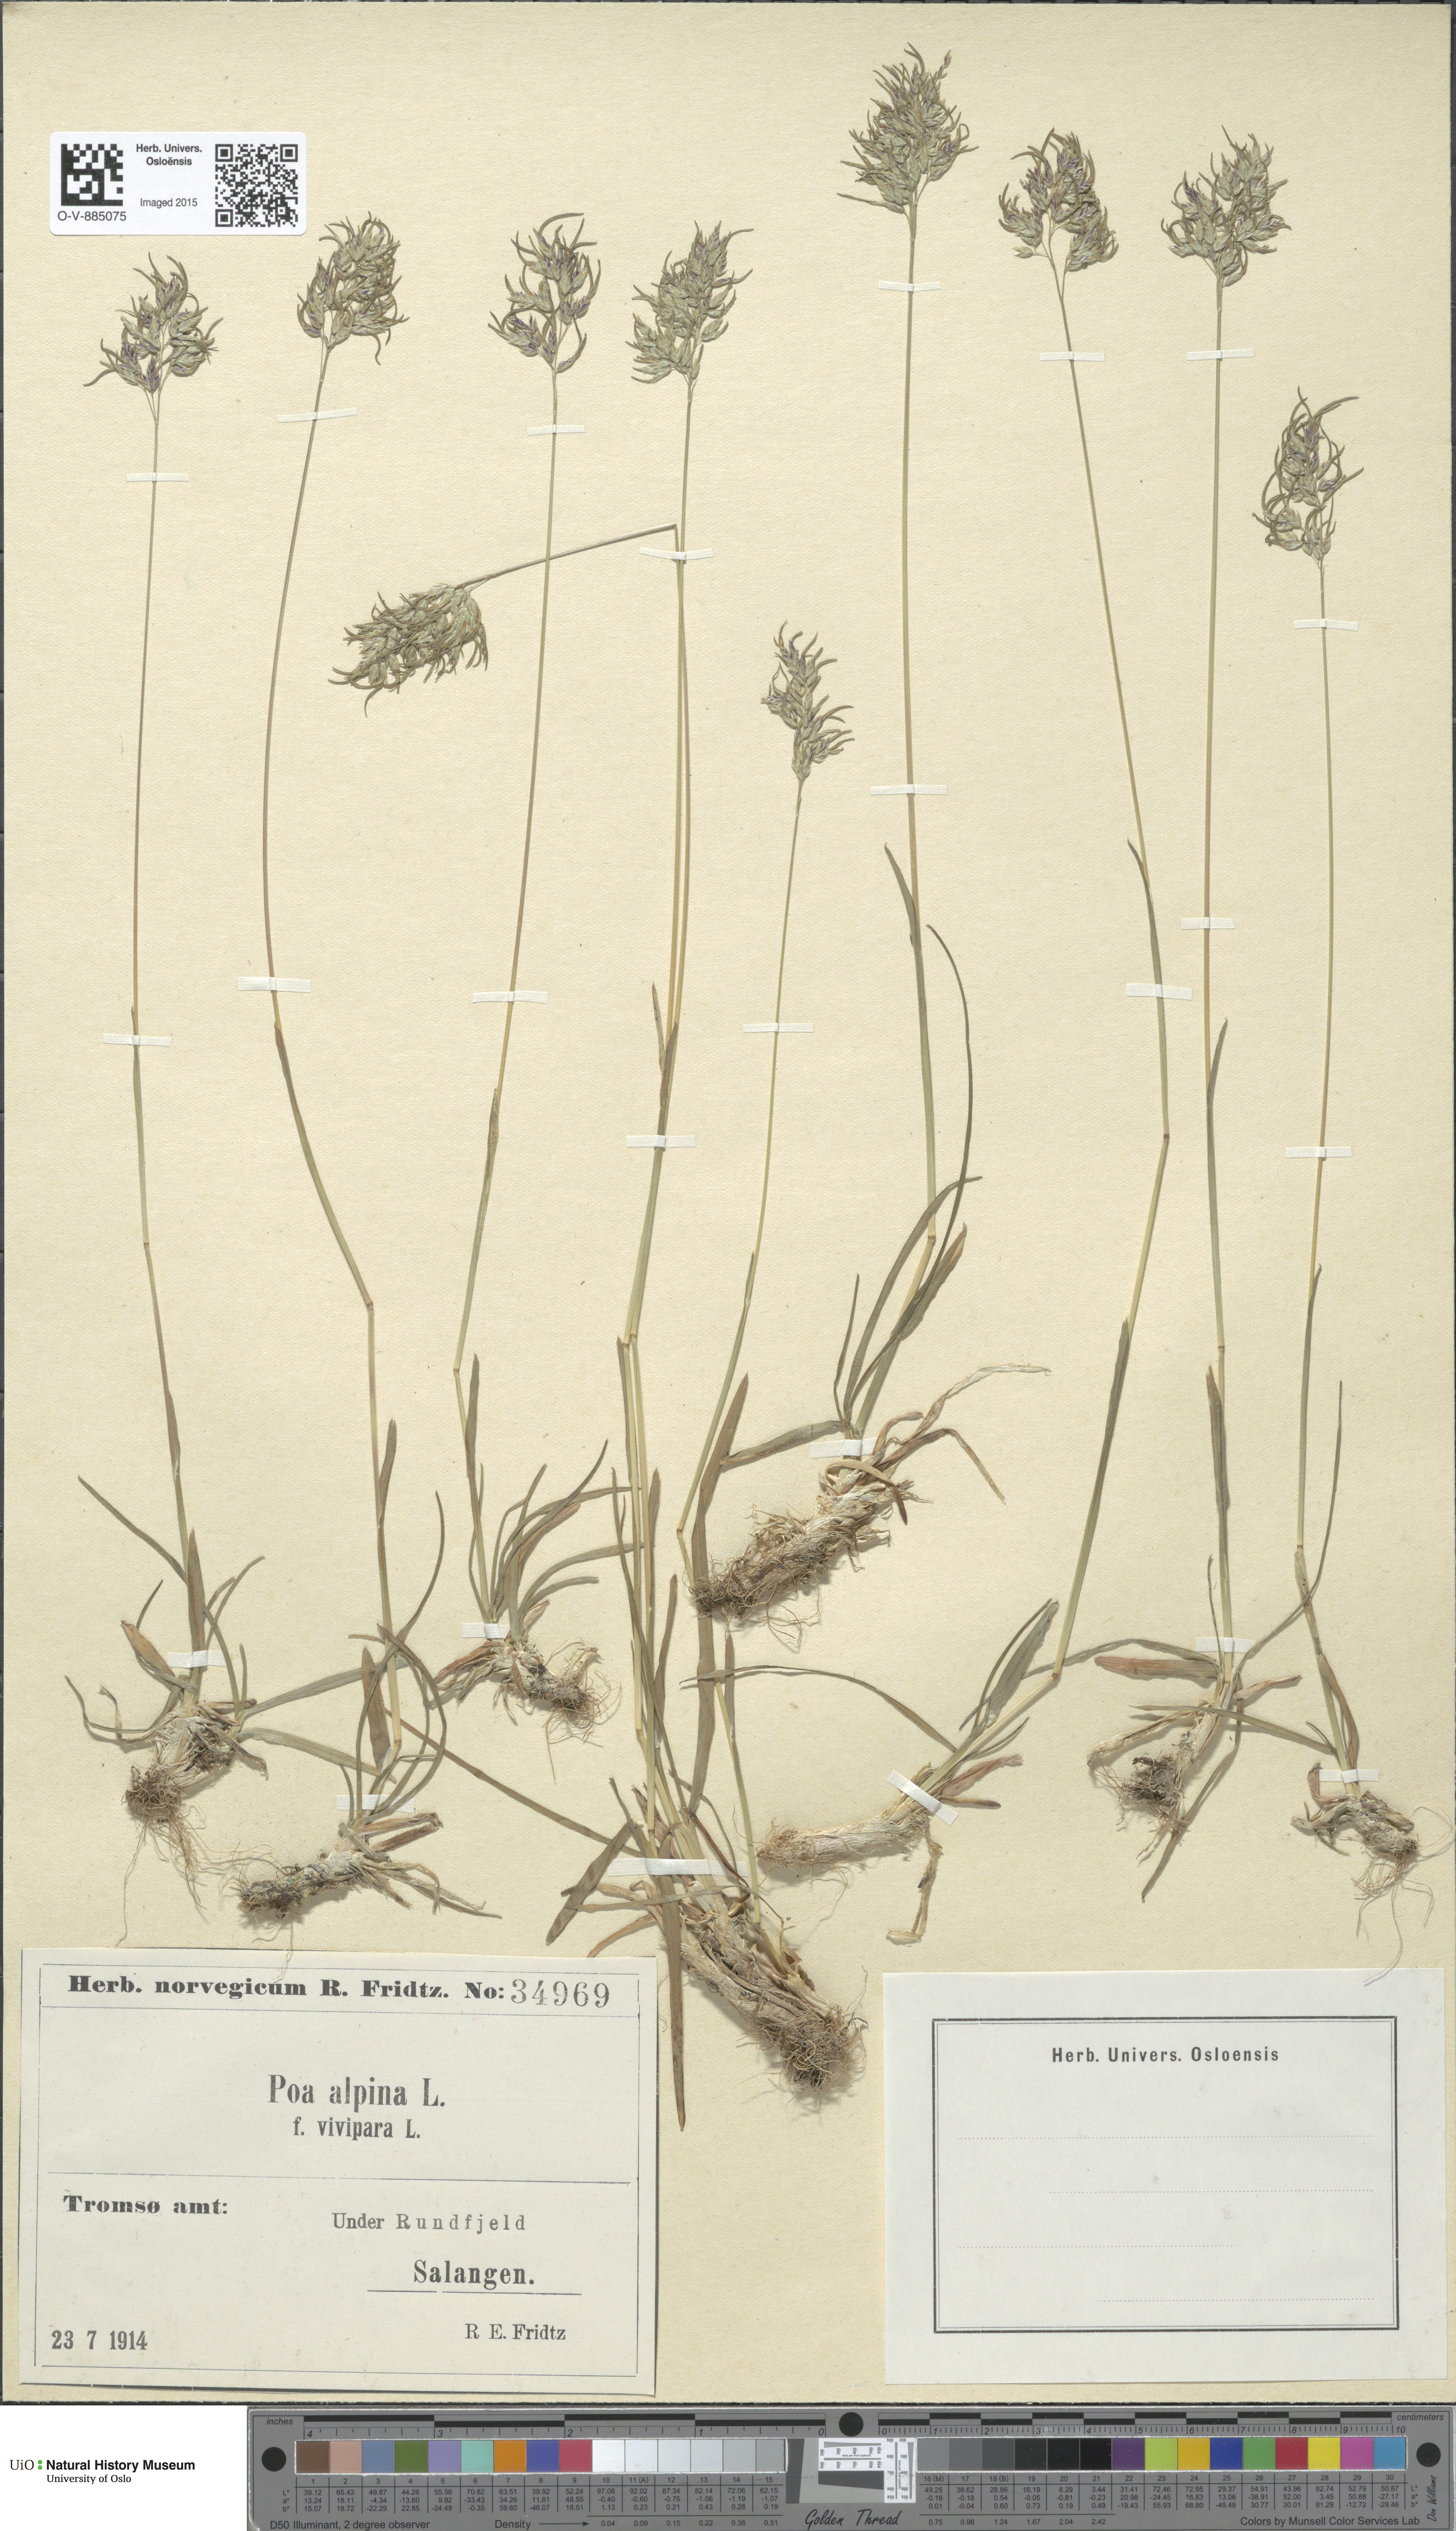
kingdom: Plantae
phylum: Tracheophyta
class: Liliopsida
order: Poales
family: Poaceae
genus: Poa
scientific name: Poa alpina
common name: Alpine bluegrass
